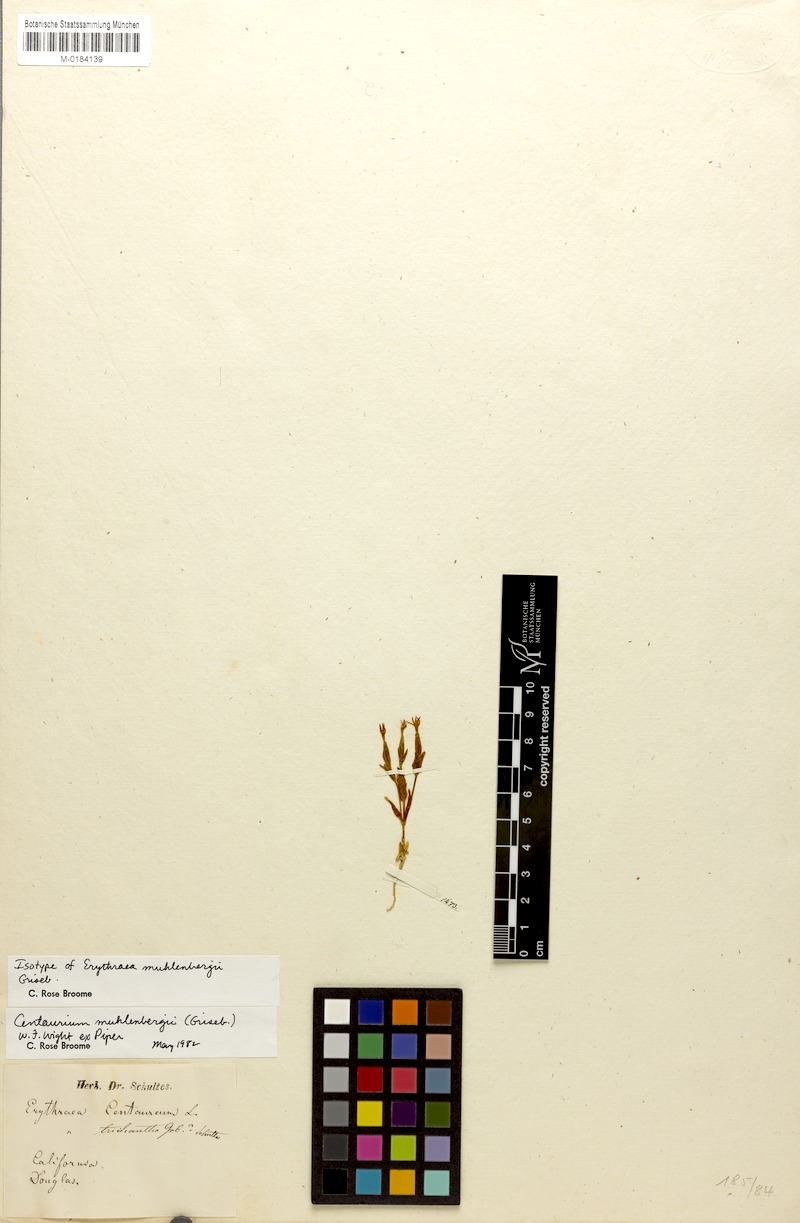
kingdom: Plantae
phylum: Tracheophyta
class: Magnoliopsida
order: Gentianales
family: Gentianaceae
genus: Zeltnera
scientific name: Zeltnera muhlenbergii
